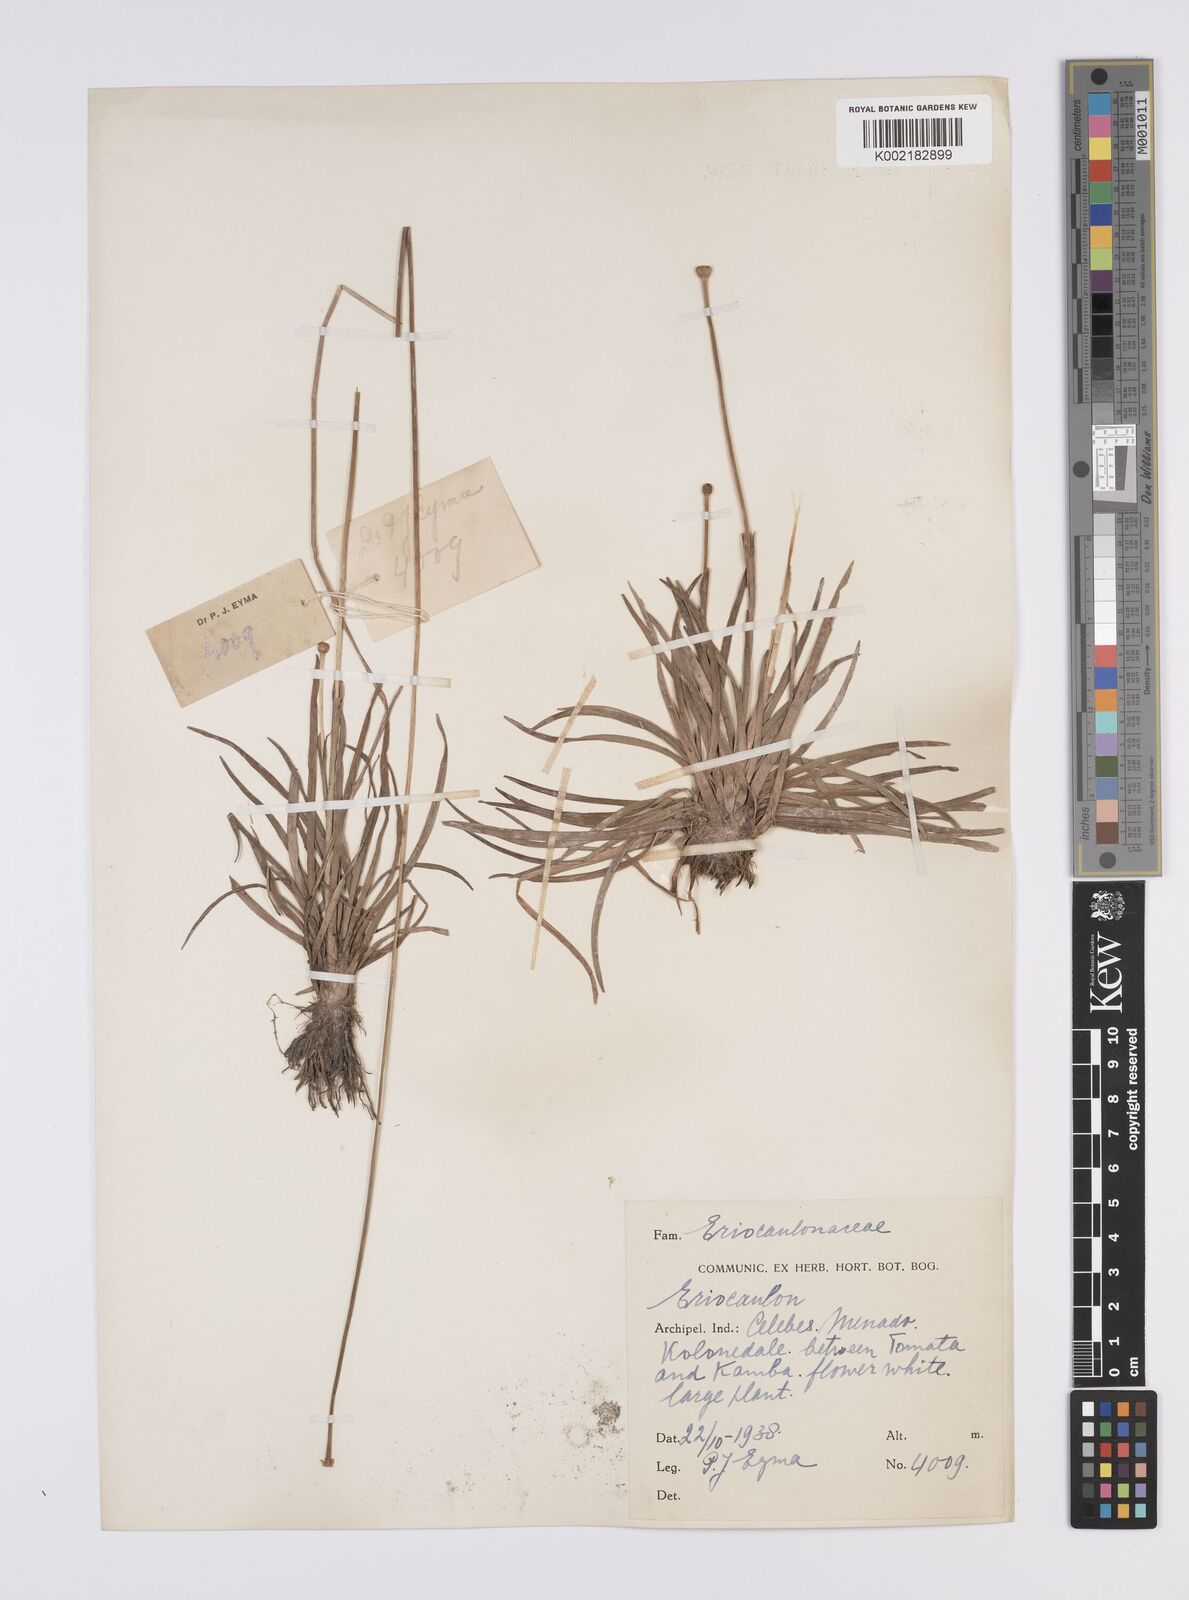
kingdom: Plantae
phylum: Tracheophyta
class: Liliopsida
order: Poales
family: Eriocaulaceae
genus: Eriocaulon
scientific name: Eriocaulon
